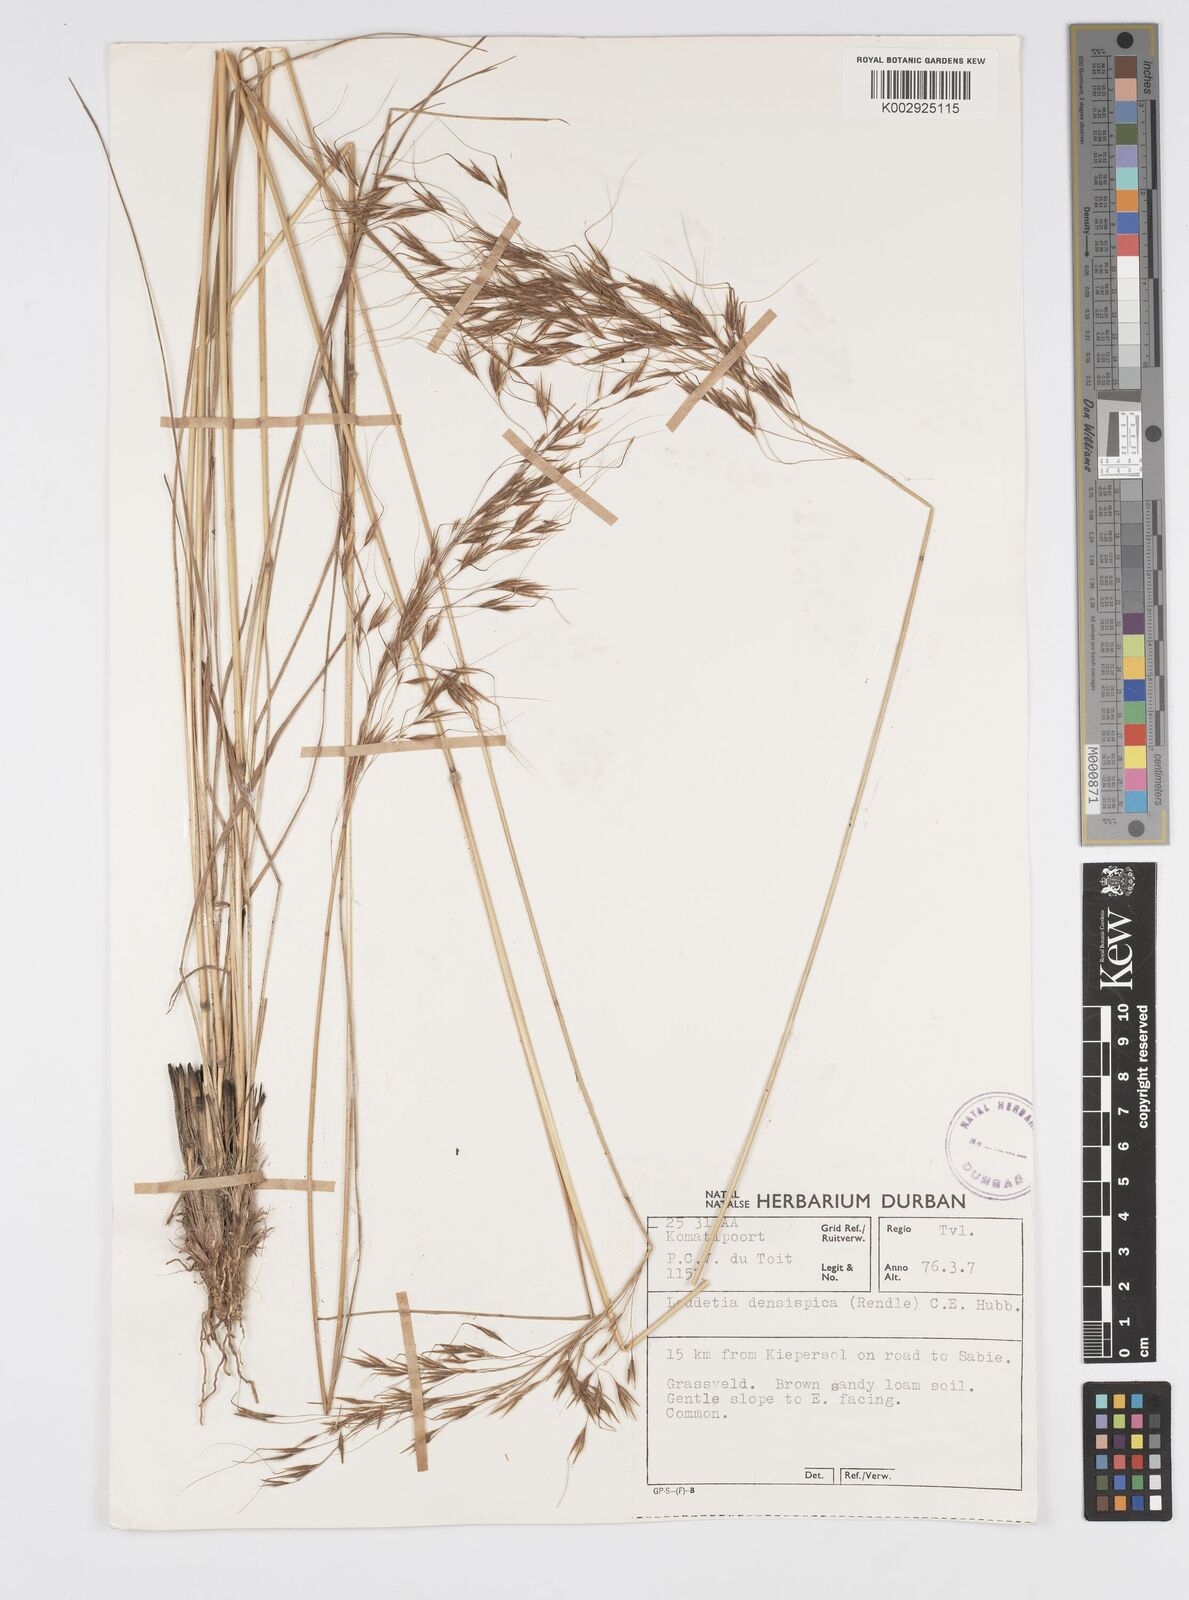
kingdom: Plantae
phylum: Tracheophyta
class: Liliopsida
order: Poales
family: Poaceae
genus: Loudetia
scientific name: Loudetia simplex
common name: Common russet grass
